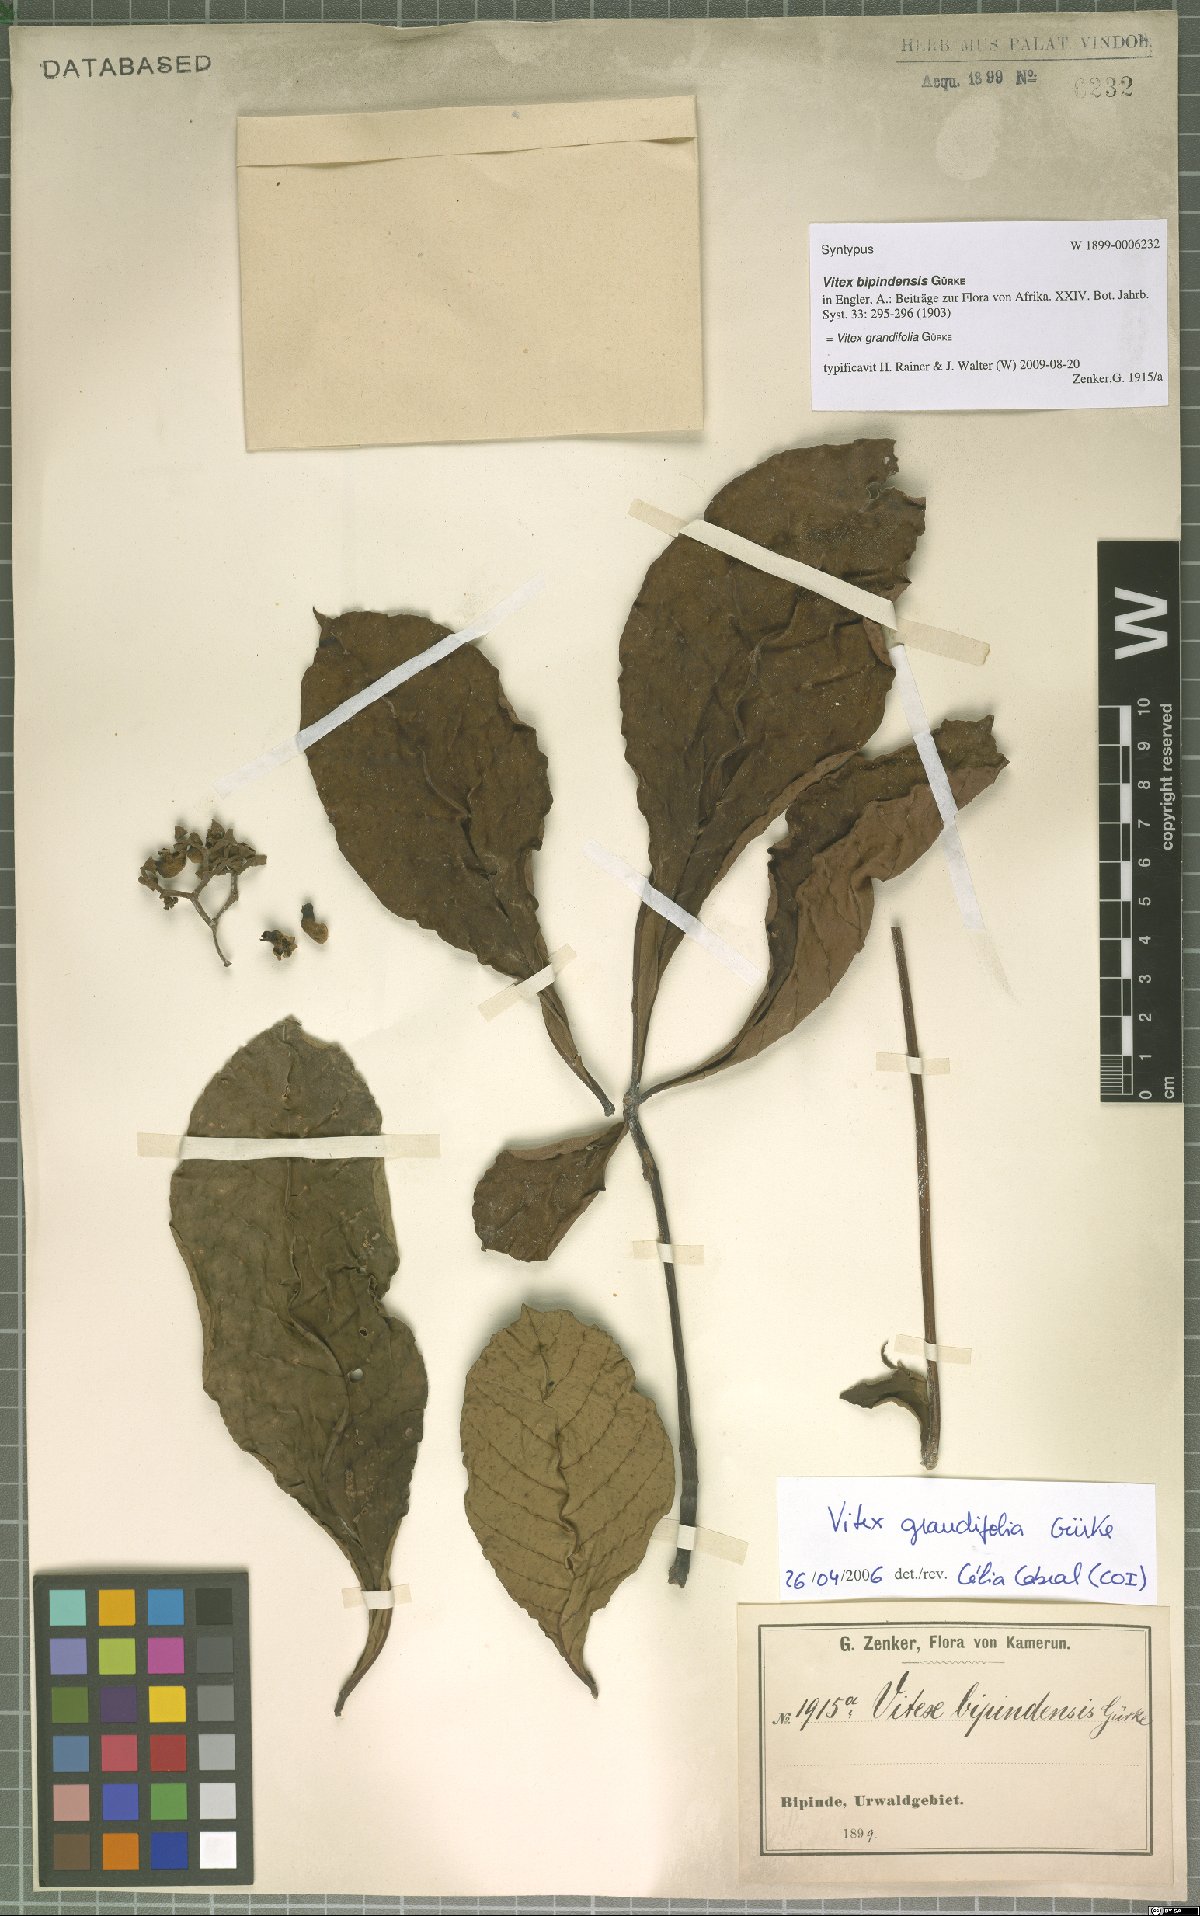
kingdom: Plantae
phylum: Tracheophyta
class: Magnoliopsida
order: Lamiales
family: Lamiaceae
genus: Vitex
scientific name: Vitex grandifolia
